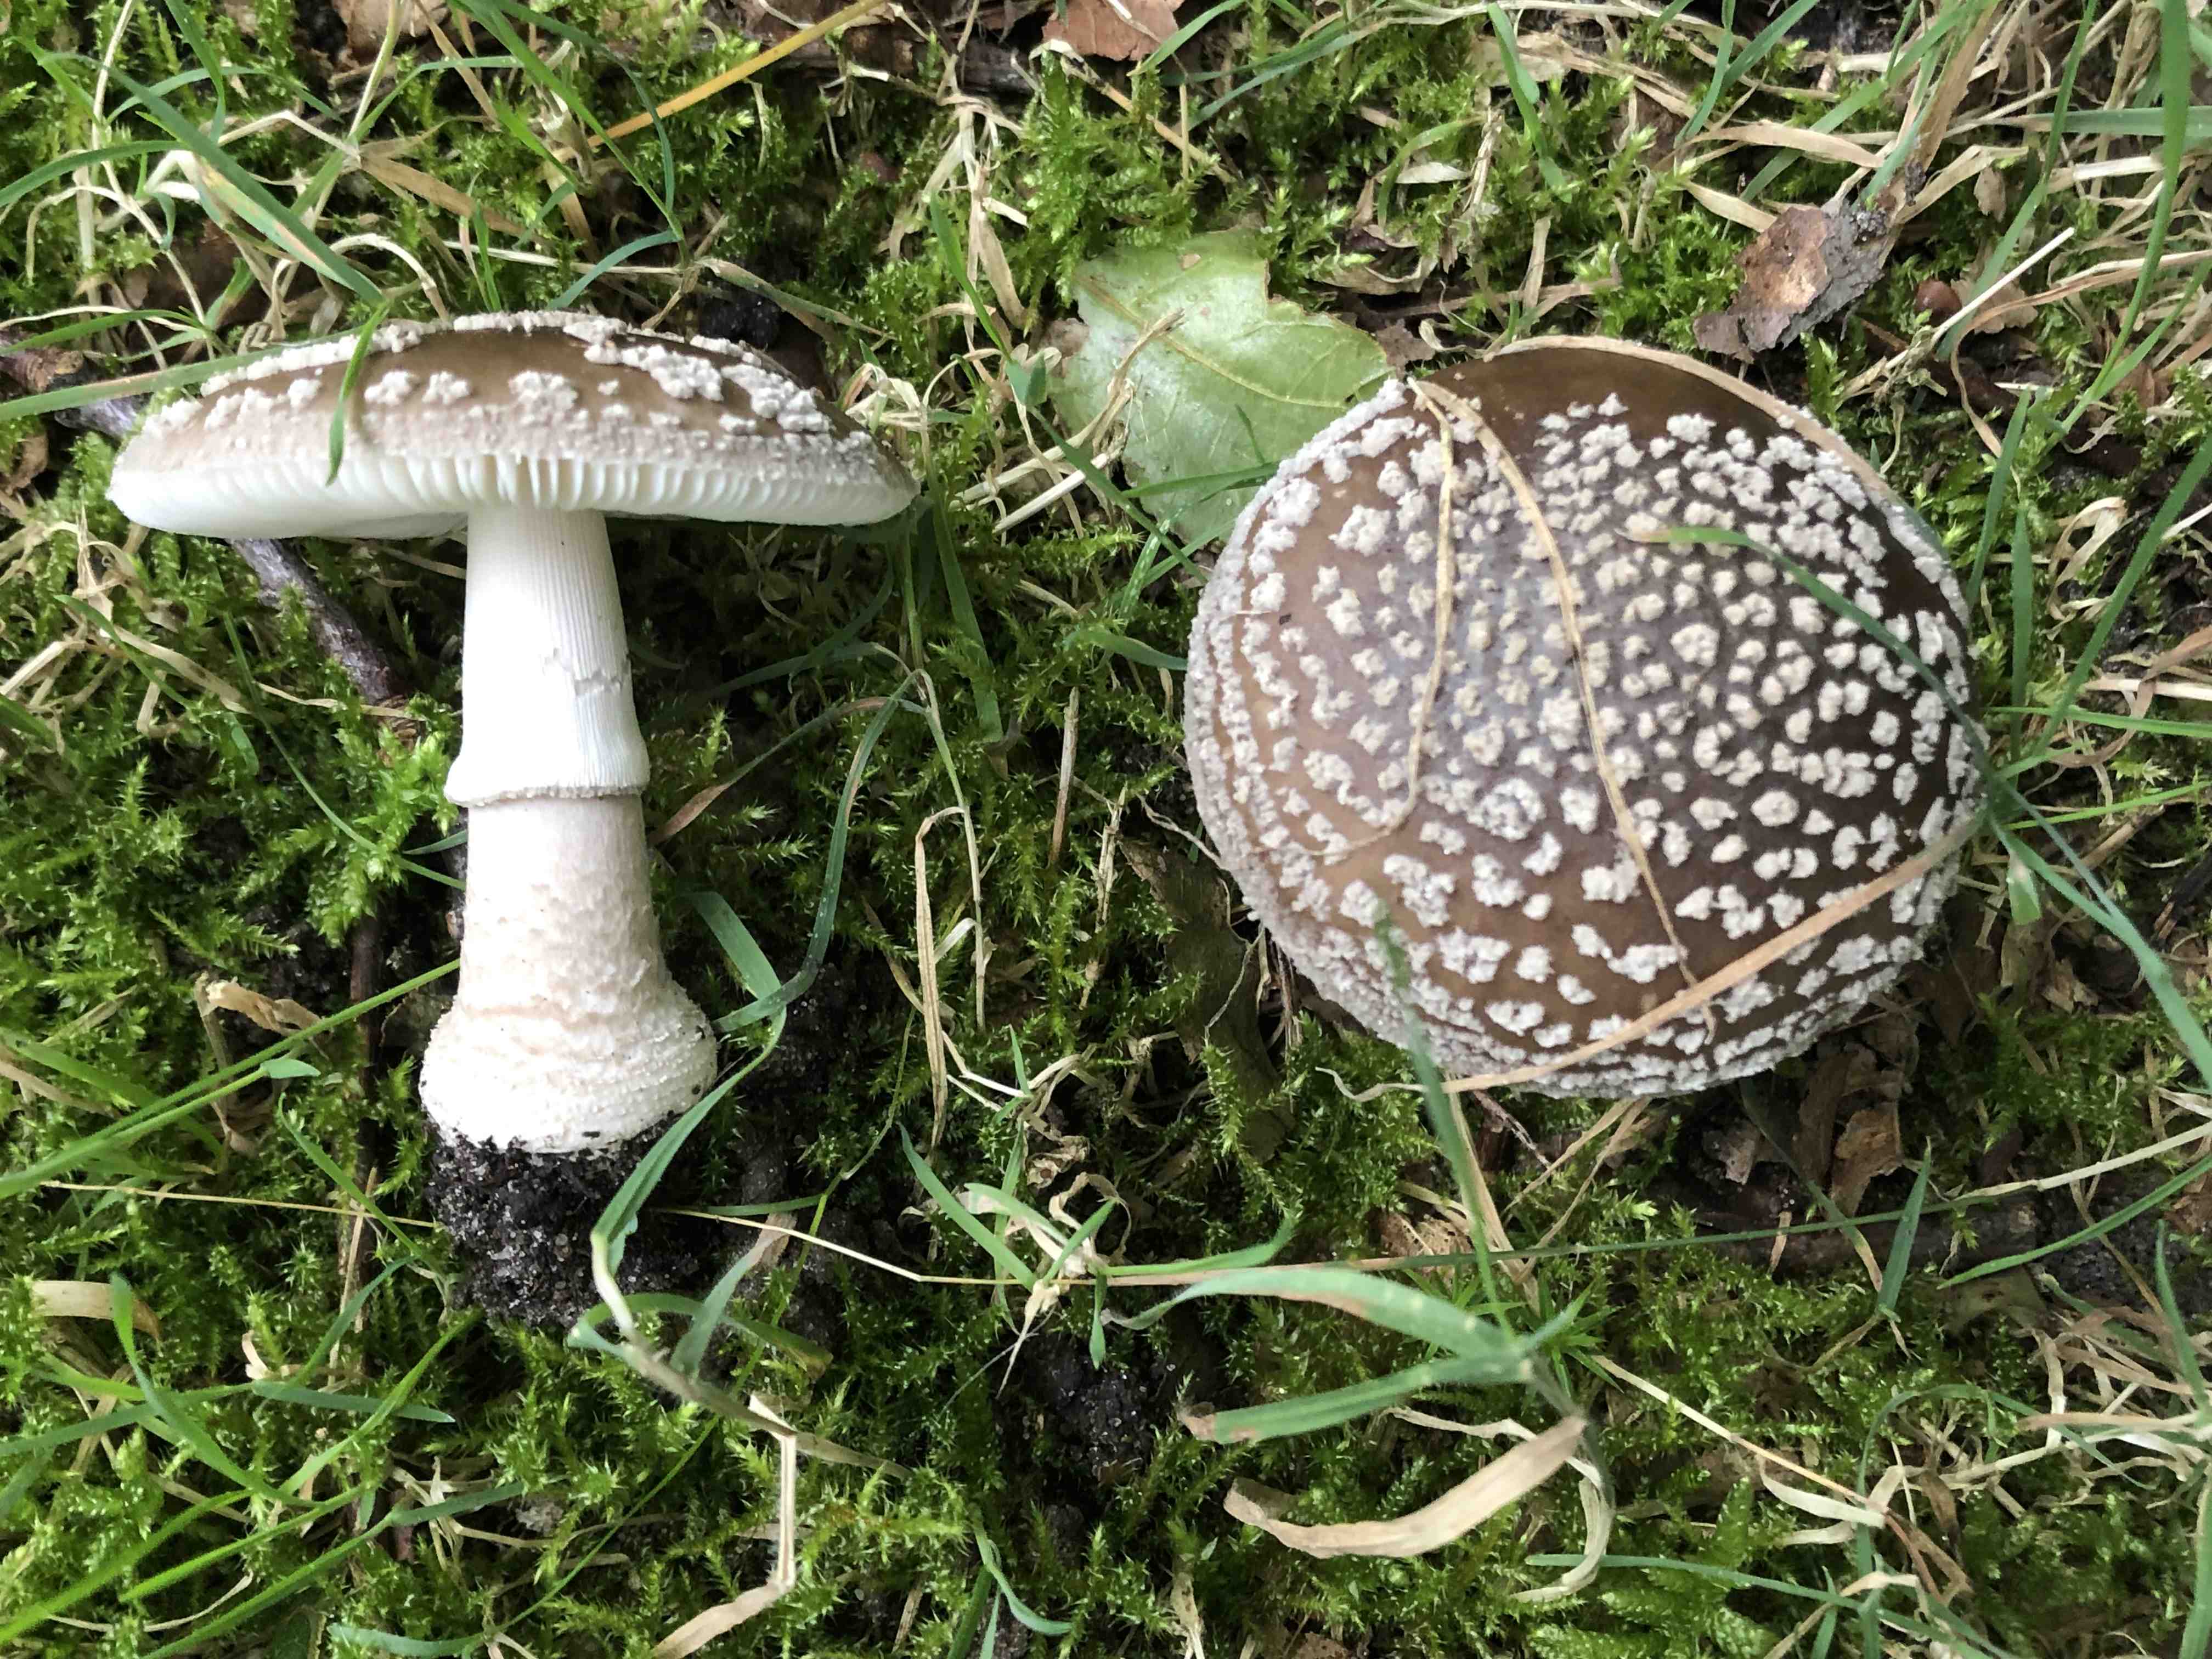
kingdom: Fungi
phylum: Basidiomycota
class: Agaricomycetes
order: Agaricales
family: Amanitaceae
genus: Amanita
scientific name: Amanita
